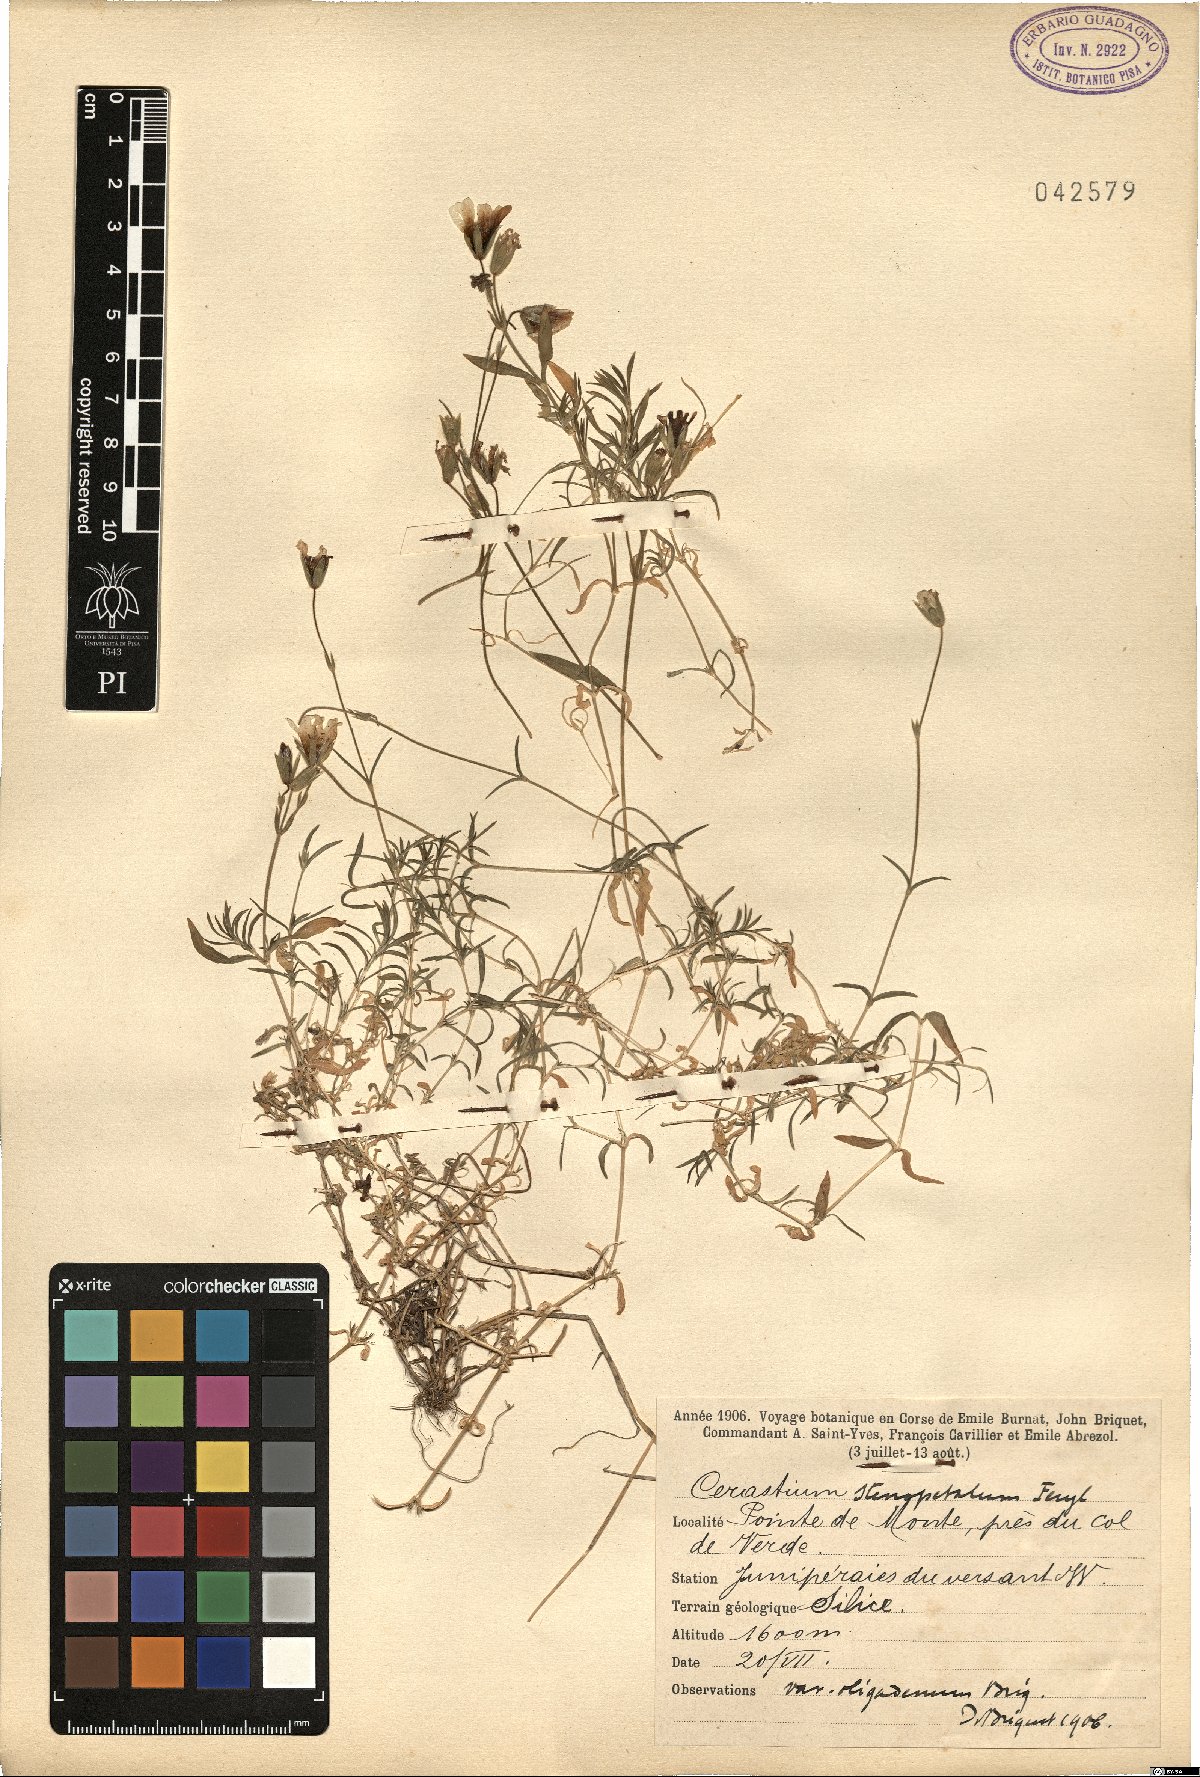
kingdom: Plantae
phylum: Tracheophyta
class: Magnoliopsida
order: Caryophyllales
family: Caryophyllaceae
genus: Cerastium
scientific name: Cerastium stenopetalum
